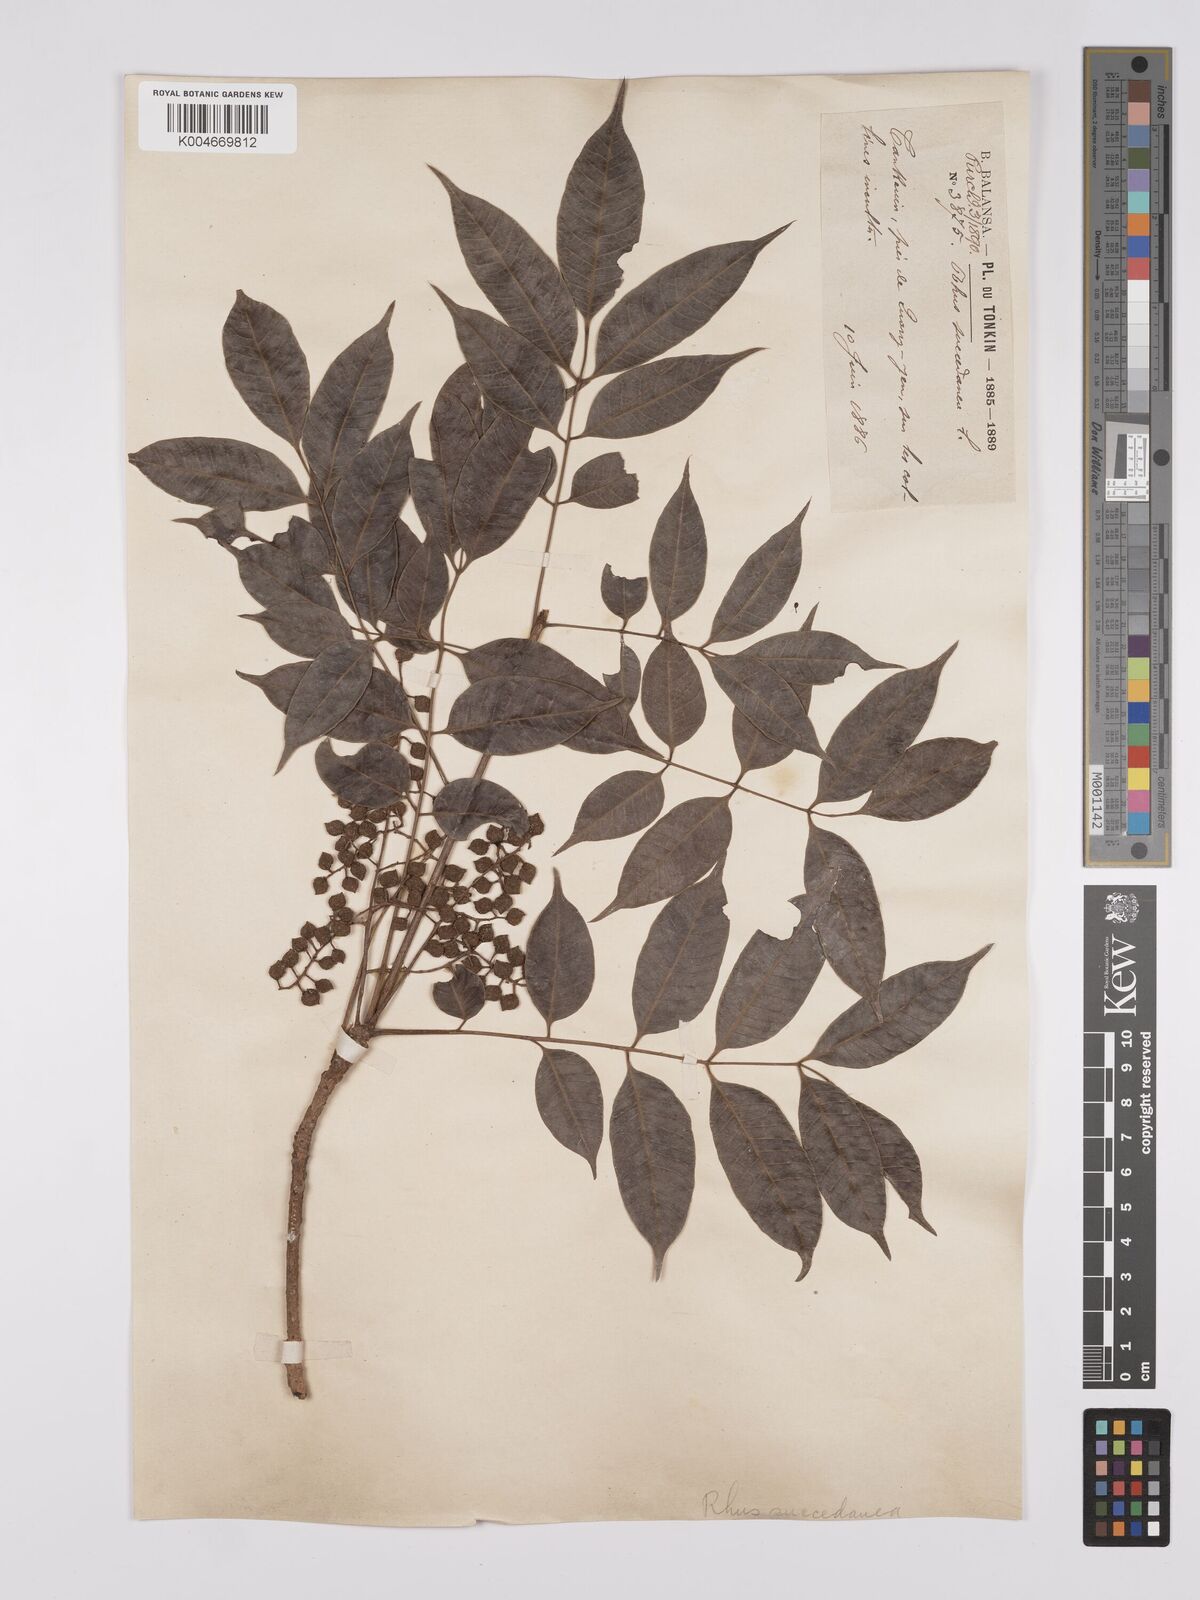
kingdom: Plantae
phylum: Tracheophyta
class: Magnoliopsida
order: Sapindales
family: Anacardiaceae
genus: Toxicodendron
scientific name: Toxicodendron succedaneum
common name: Wax tree
